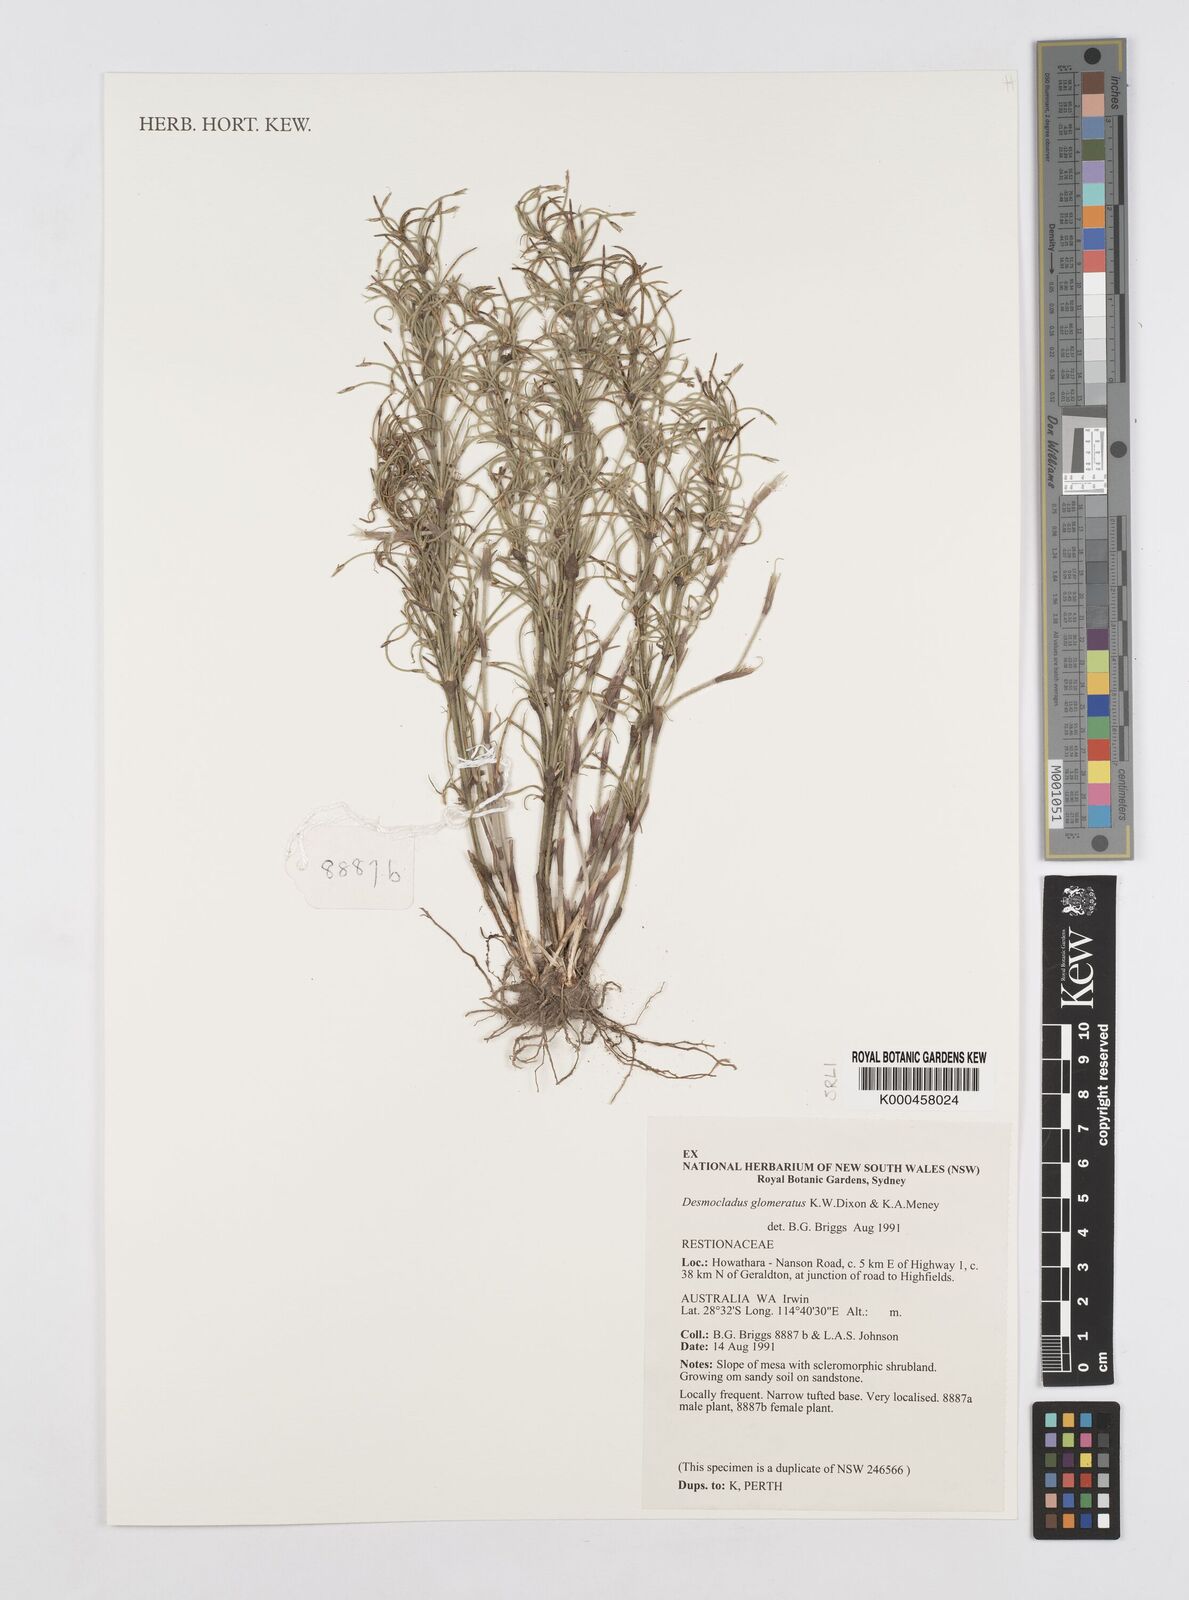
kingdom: Plantae
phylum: Tracheophyta
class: Liliopsida
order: Poales
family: Restionaceae
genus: Desmocladus
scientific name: Desmocladus
